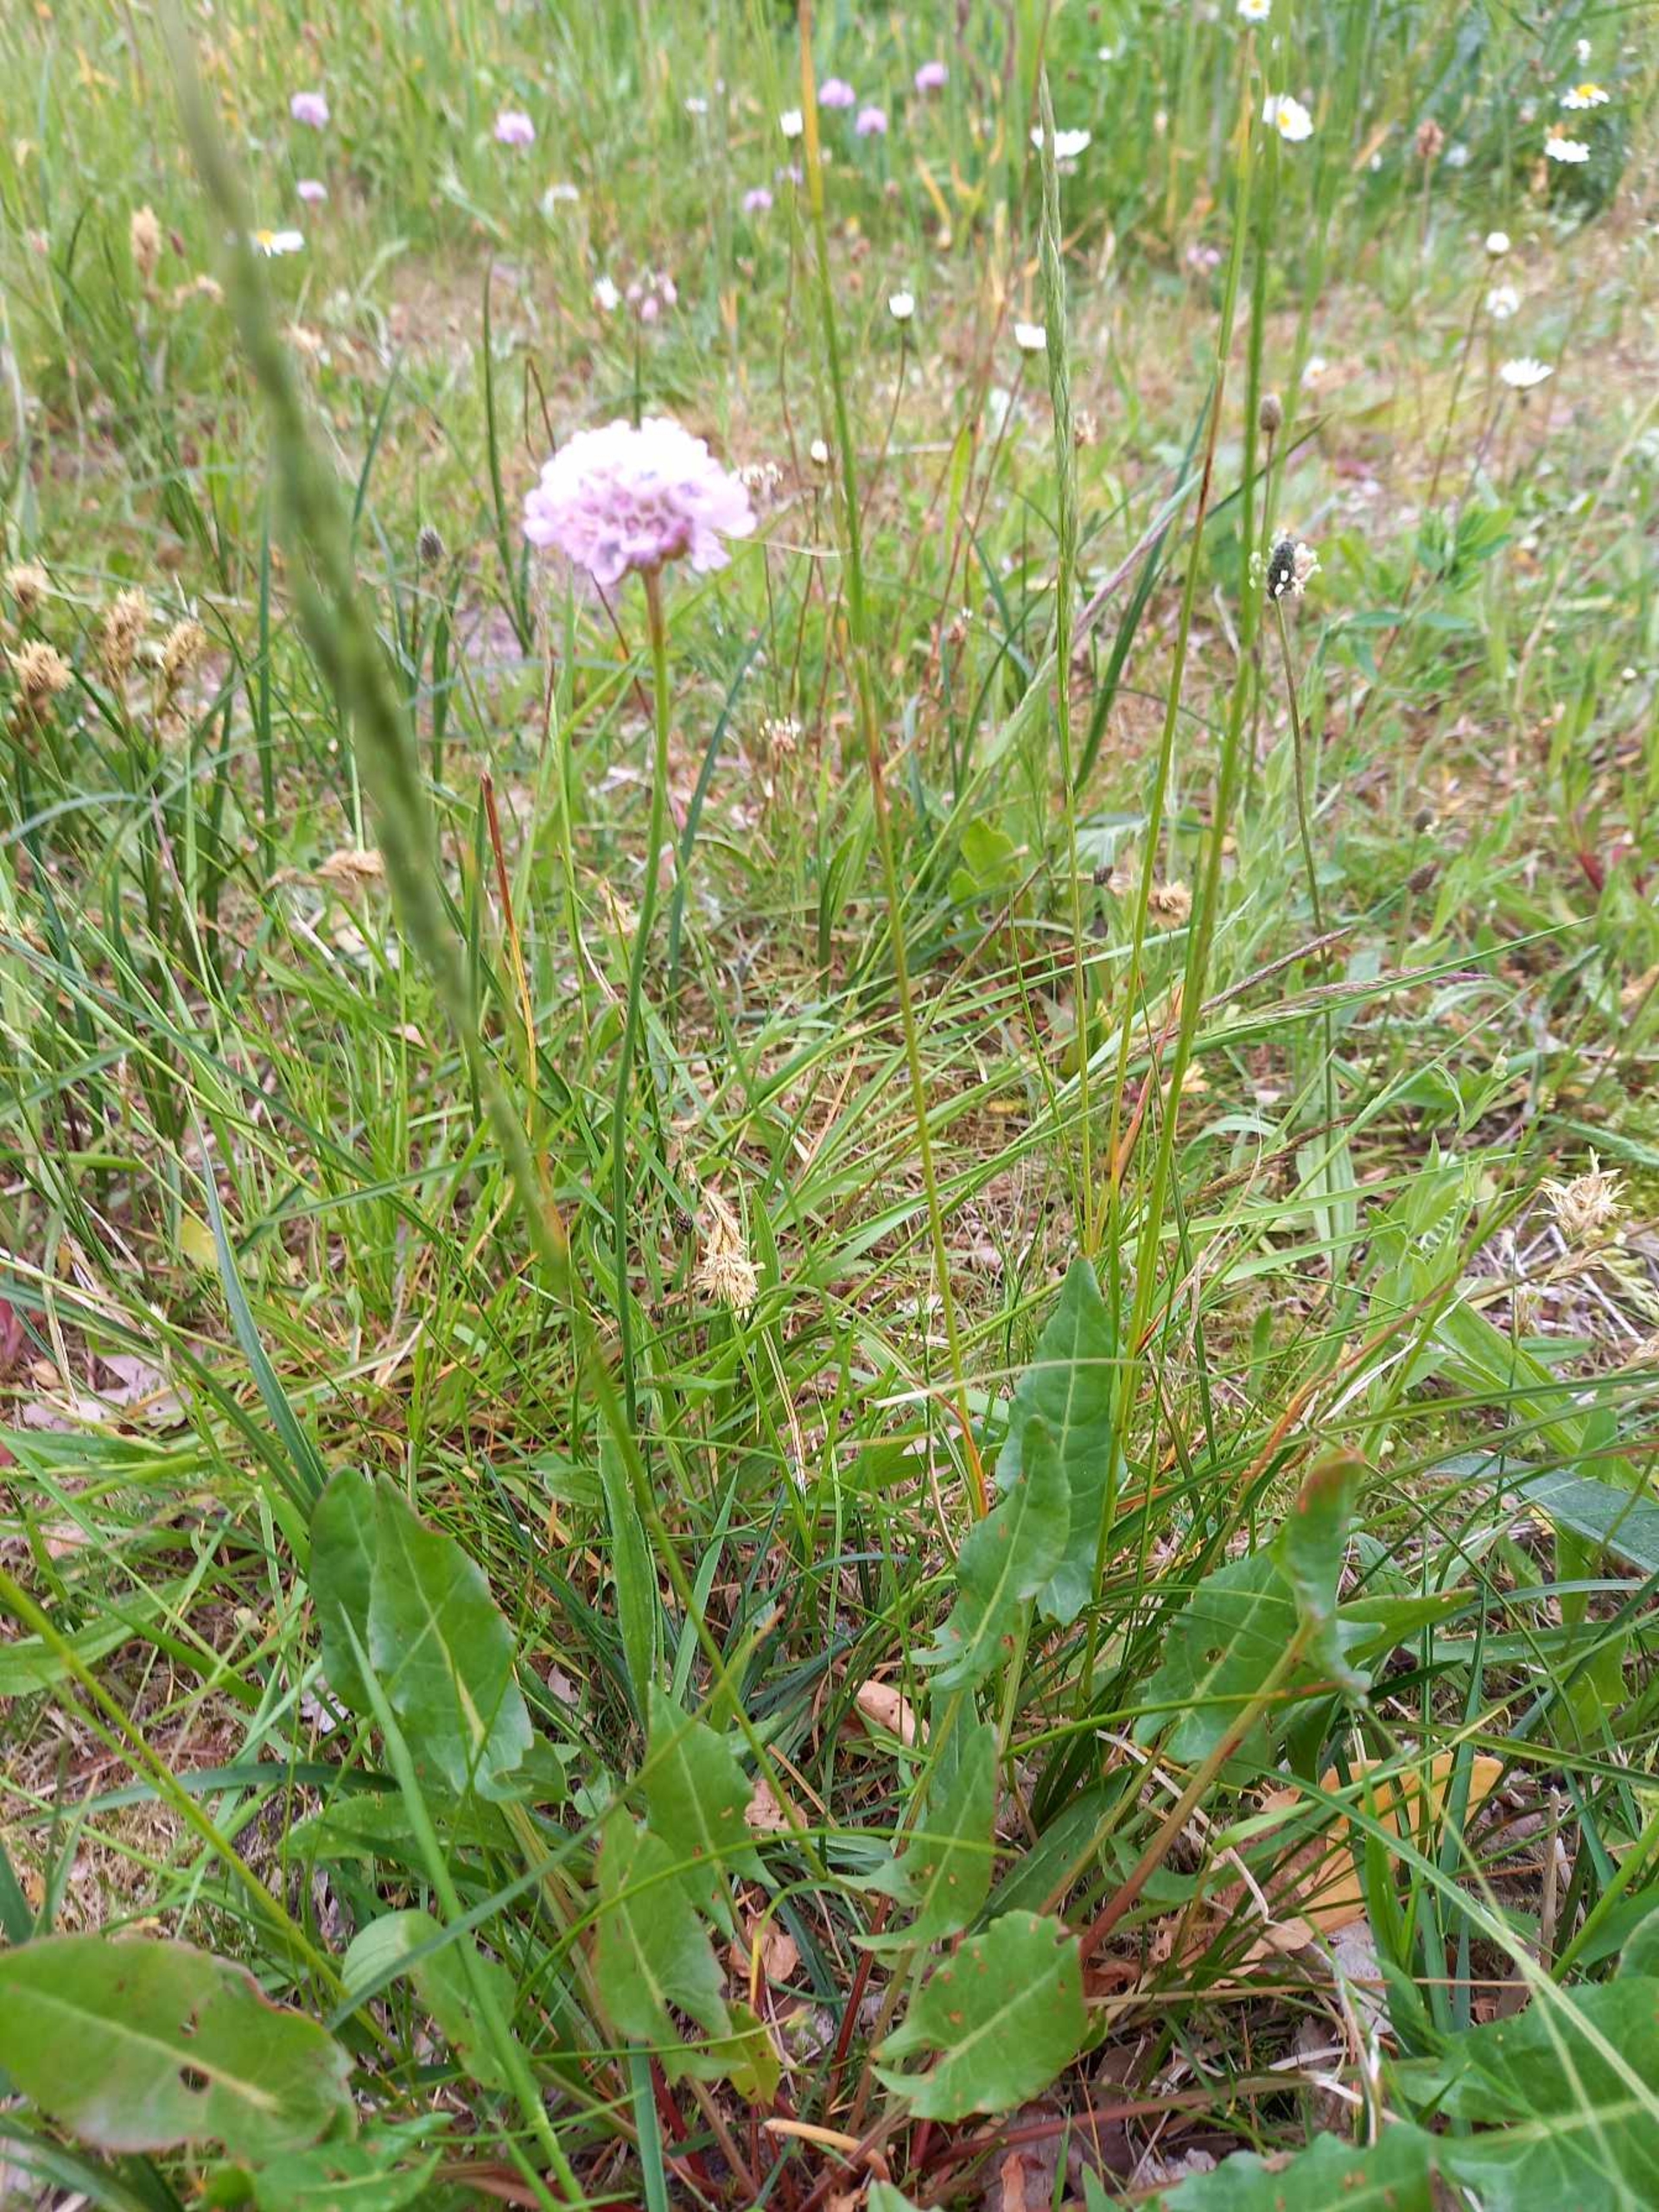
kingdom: Plantae
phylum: Tracheophyta
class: Magnoliopsida
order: Boraginales
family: Boraginaceae
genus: Anchusa
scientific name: Anchusa officinalis
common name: Læge-oksetunge
